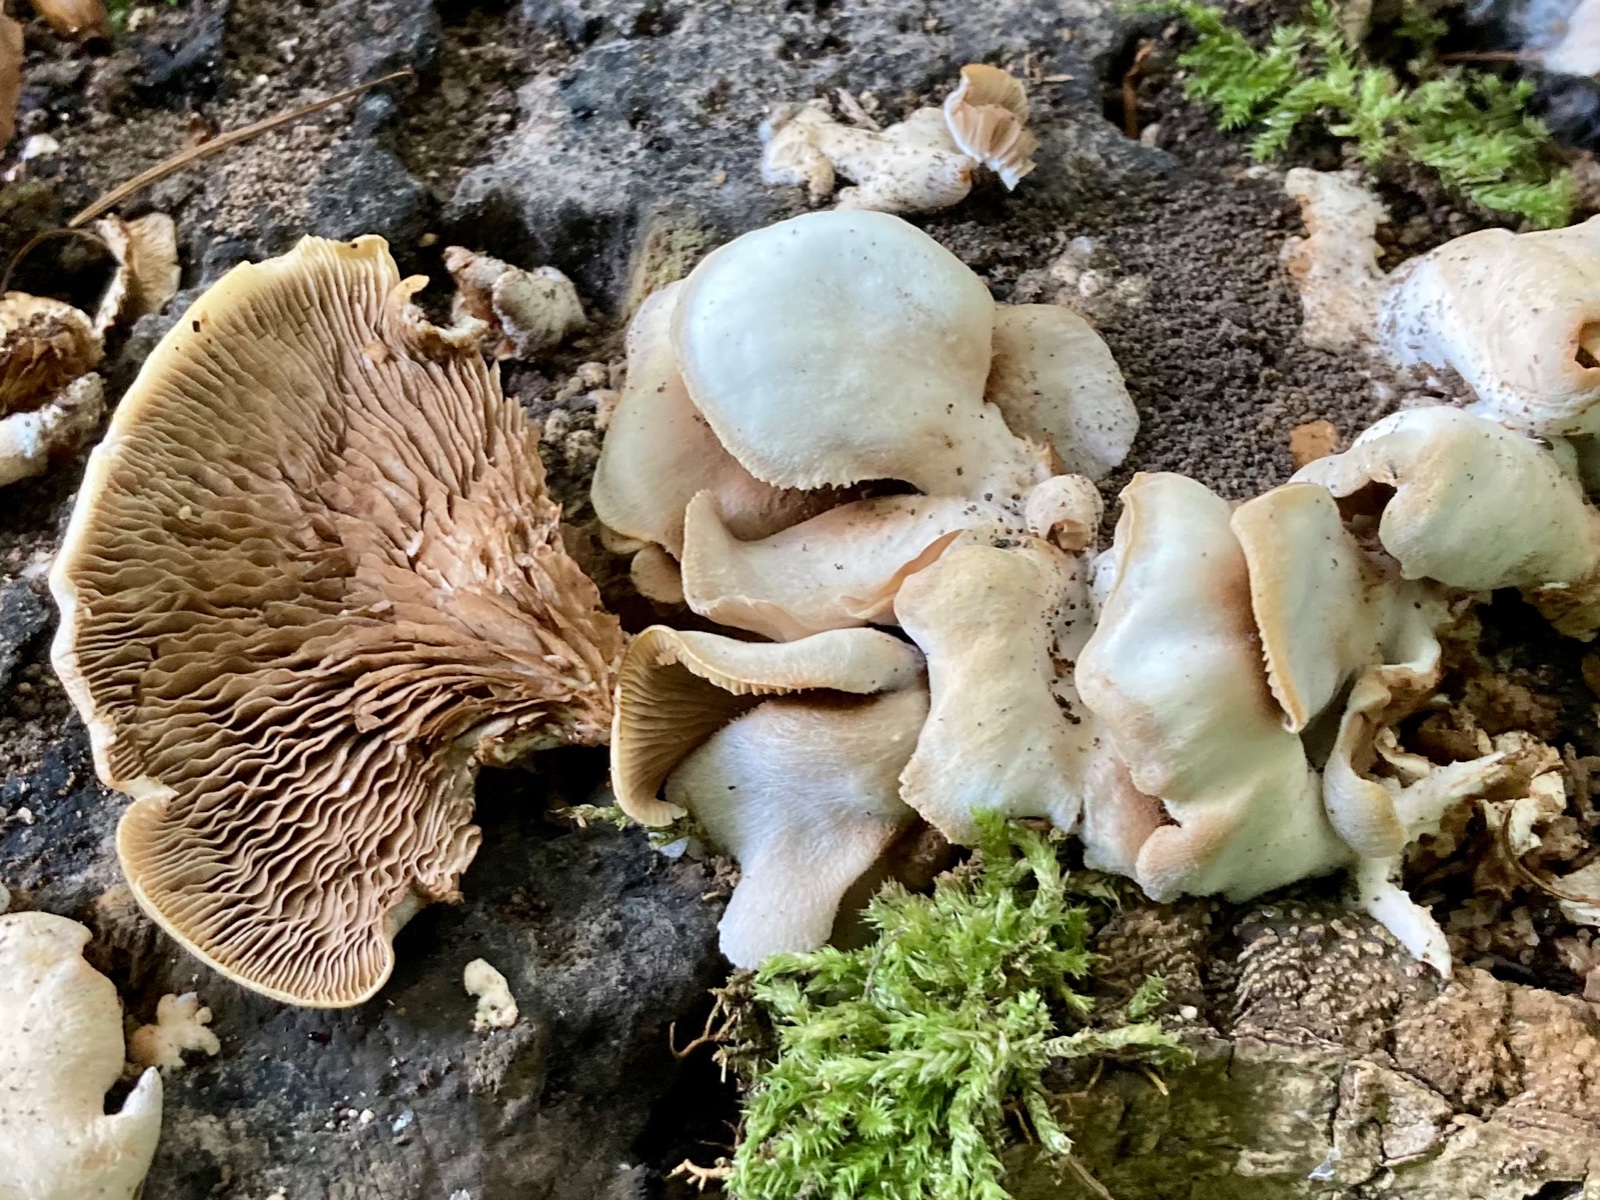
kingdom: Fungi
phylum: Basidiomycota
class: Agaricomycetes
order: Agaricales
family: Crepidotaceae
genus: Crepidotus
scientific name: Crepidotus autochthonus
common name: skæv muslingesvamp
